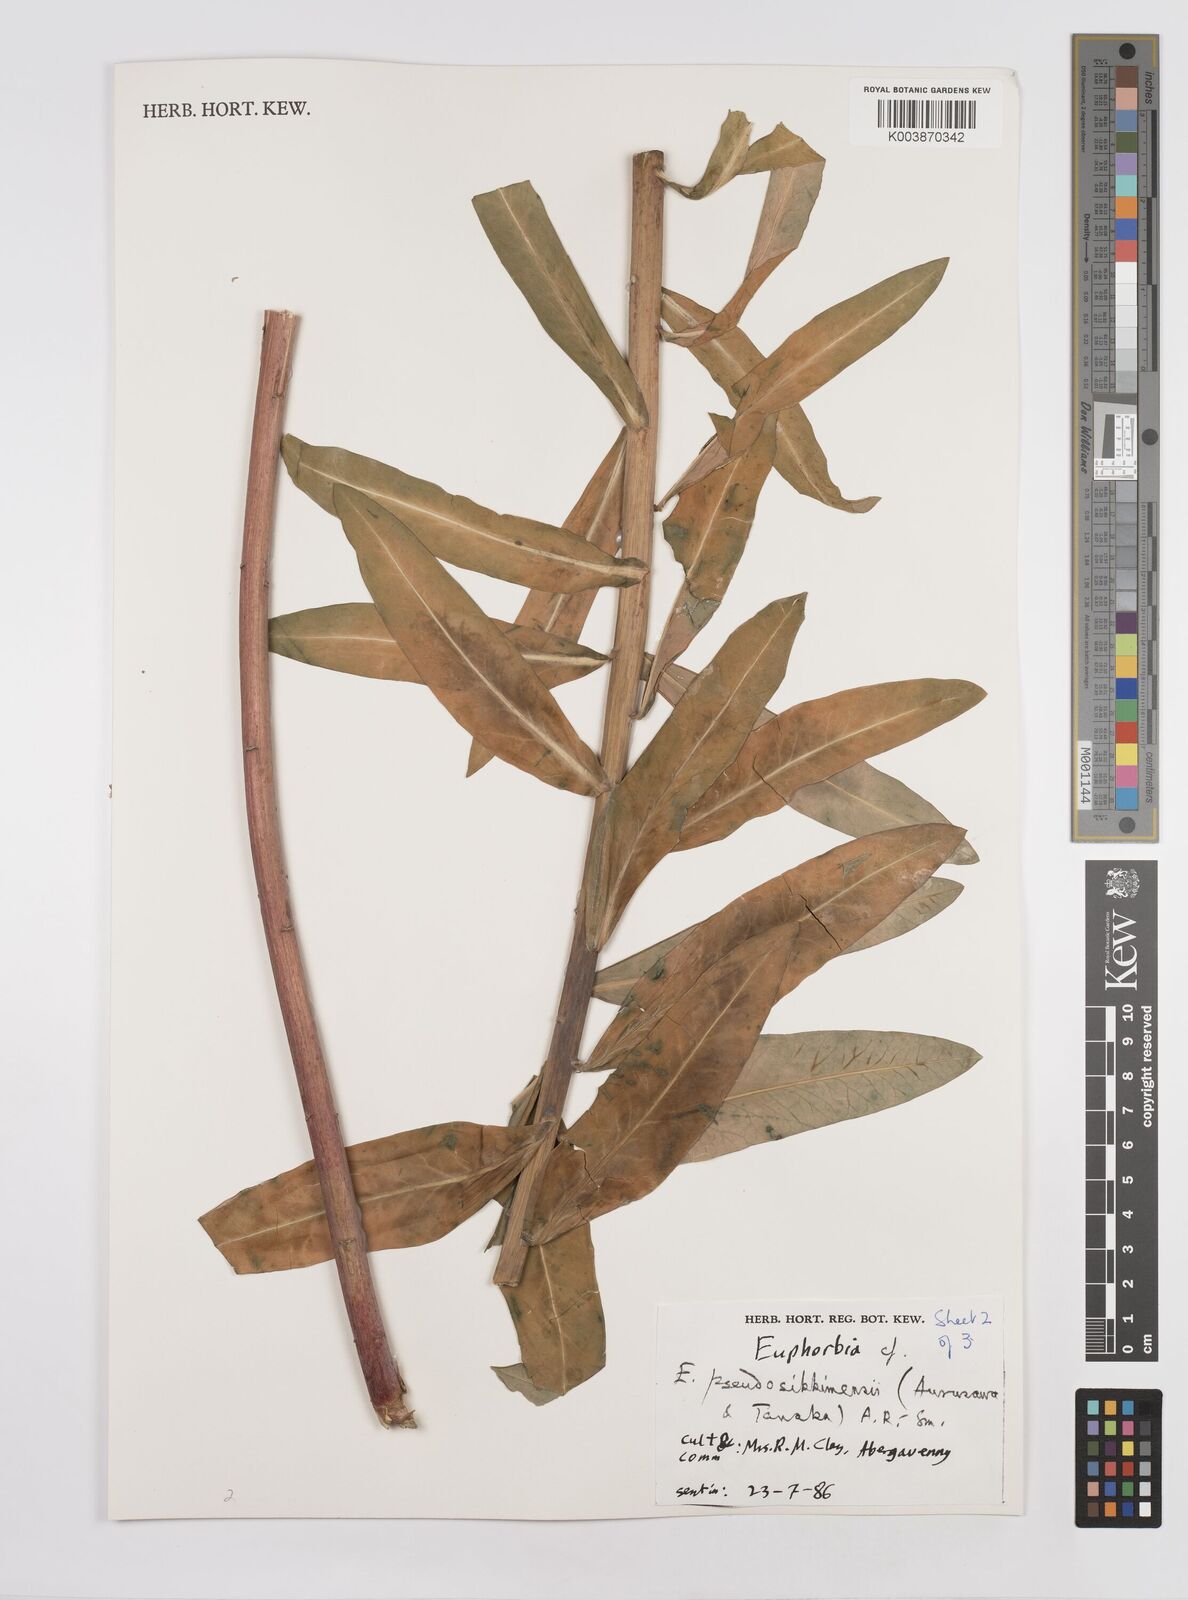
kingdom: Plantae
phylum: Tracheophyta
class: Magnoliopsida
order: Malpighiales
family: Euphorbiaceae
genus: Euphorbia
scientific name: Euphorbia pseudosikkimensis
